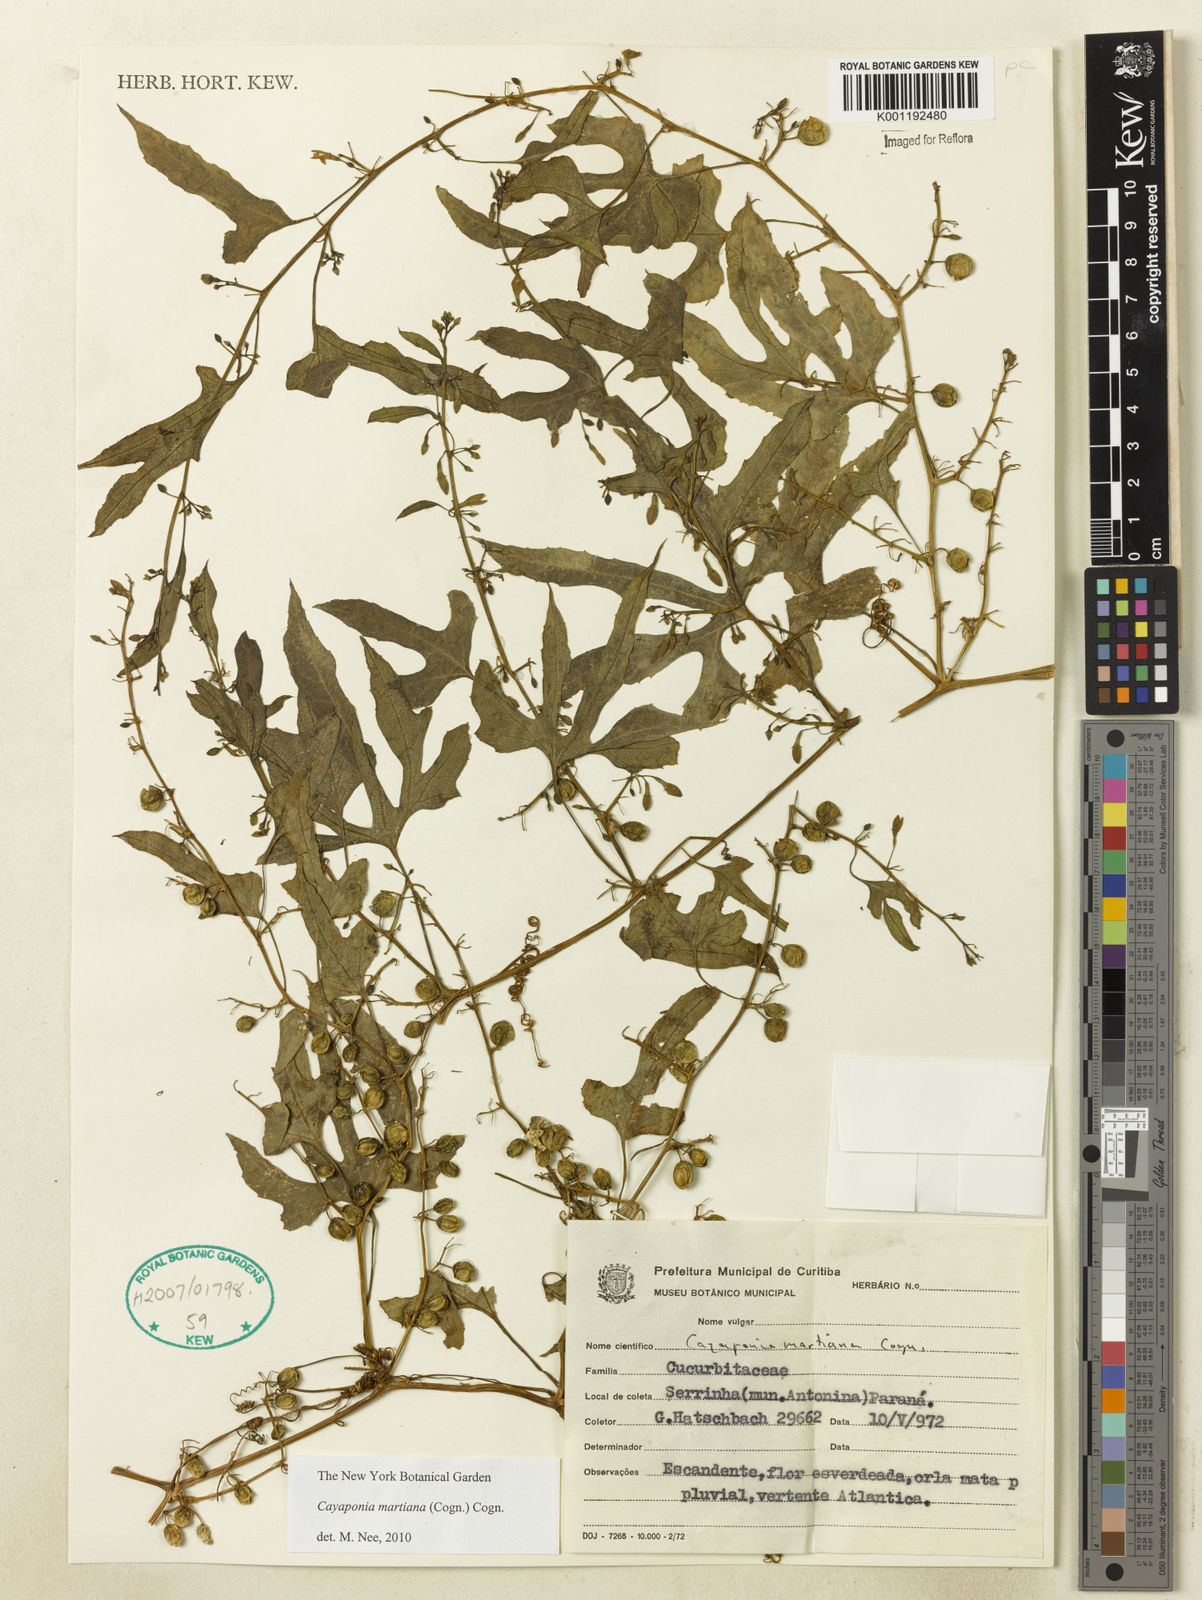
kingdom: Plantae
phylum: Tracheophyta
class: Magnoliopsida
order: Cucurbitales
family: Cucurbitaceae
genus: Cayaponia
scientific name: Cayaponia martiana
